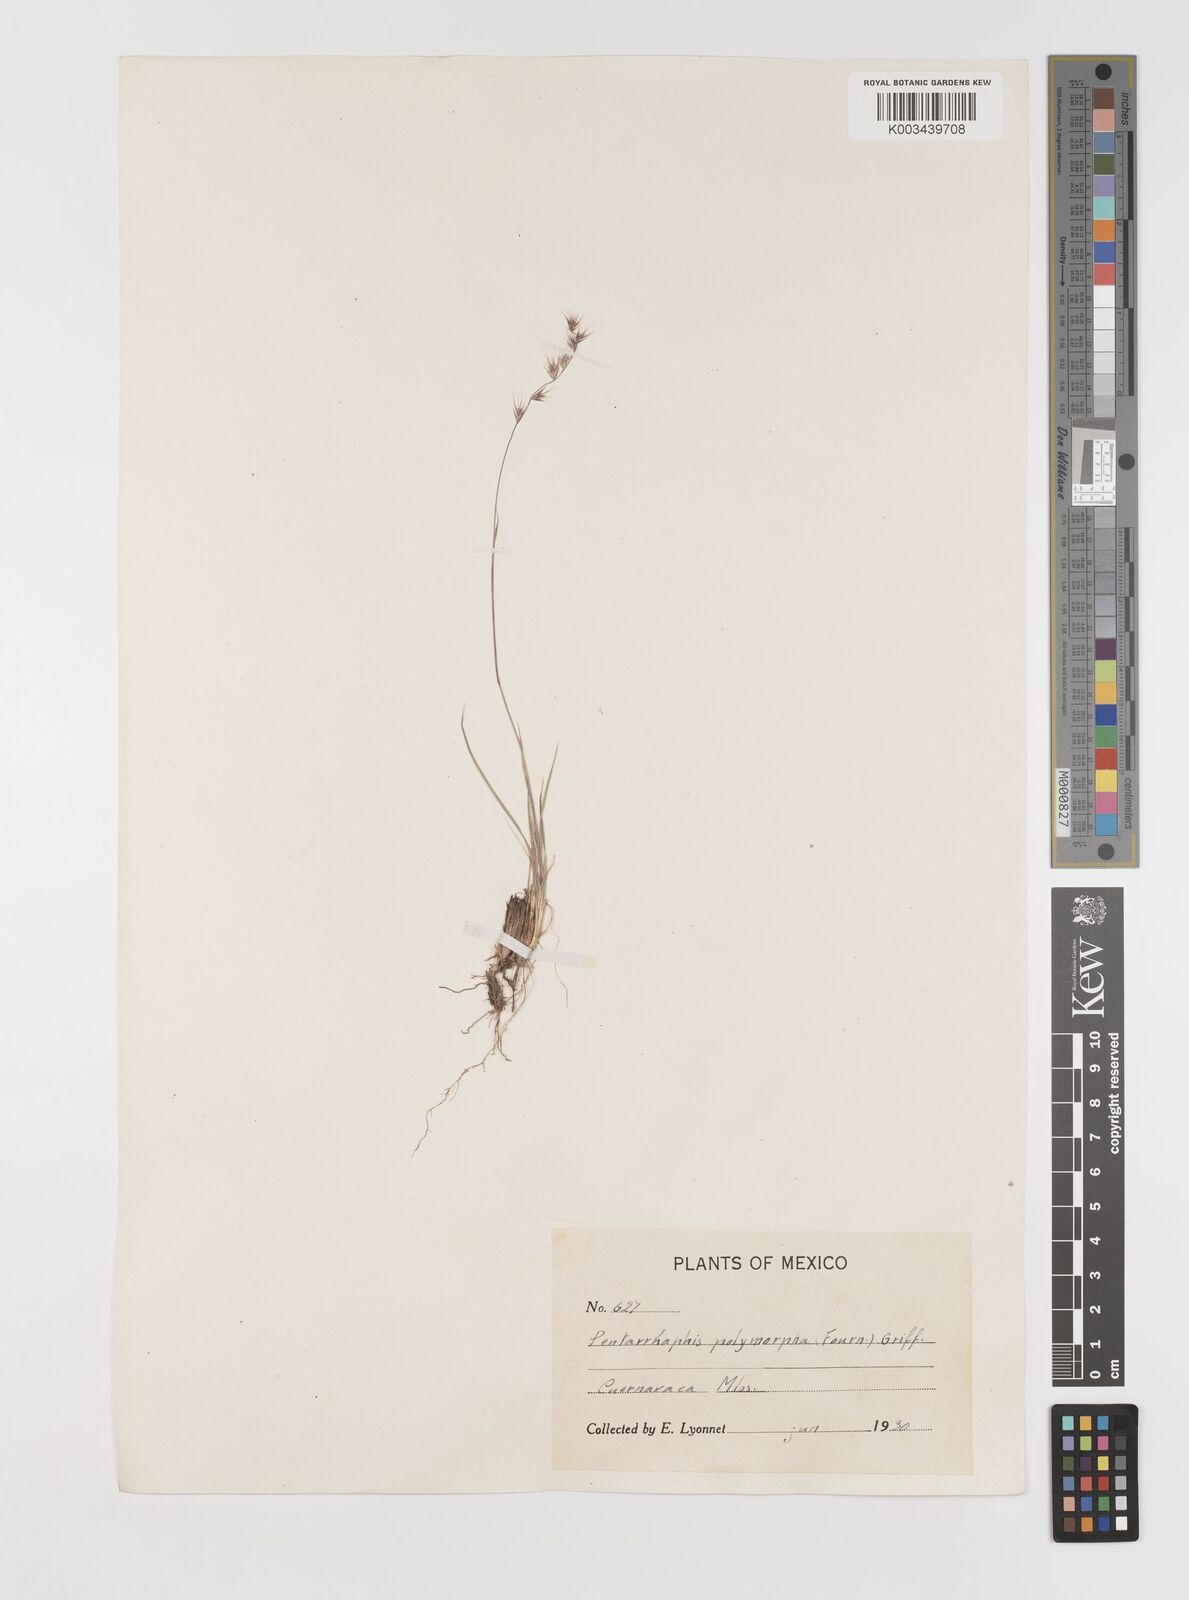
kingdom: Plantae
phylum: Tracheophyta
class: Liliopsida
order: Poales
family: Poaceae
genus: Bouteloua
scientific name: Bouteloua polymorpha
